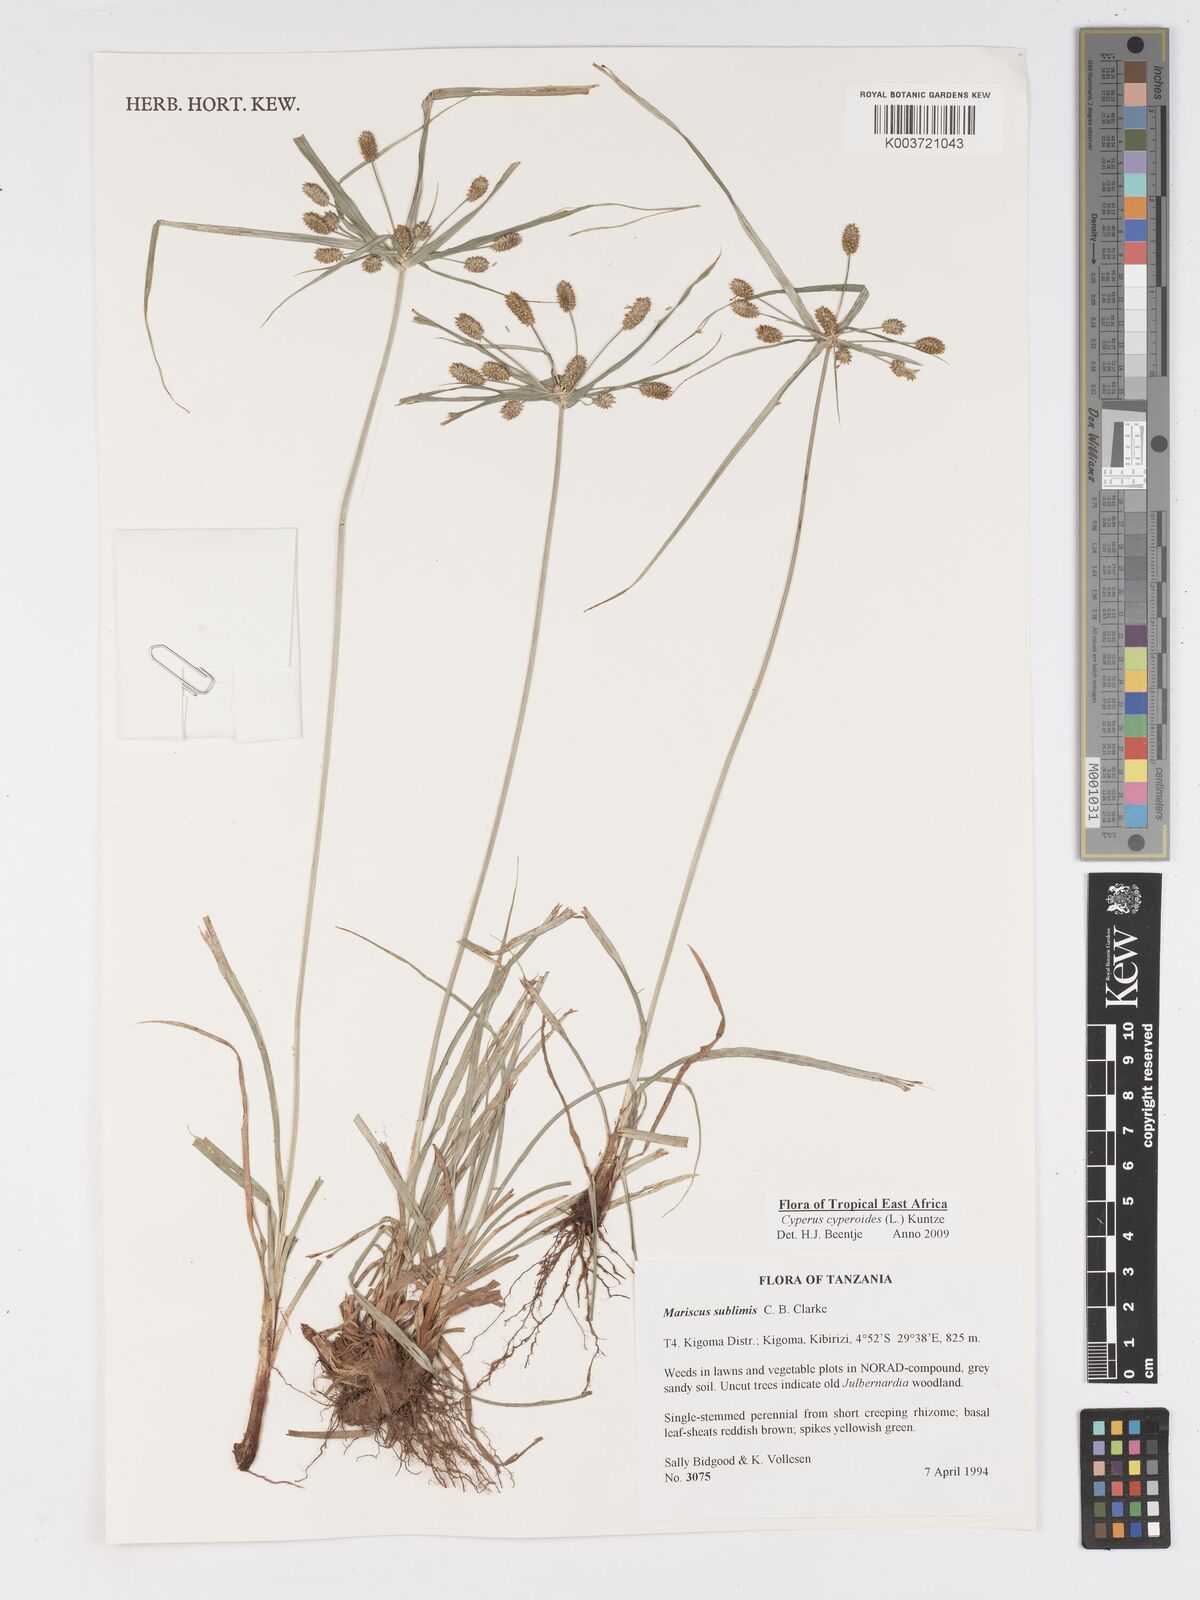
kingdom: Plantae
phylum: Tracheophyta
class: Liliopsida
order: Poales
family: Cyperaceae
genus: Cyperus
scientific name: Cyperus cyperoides
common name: Pacific island flat sedge
